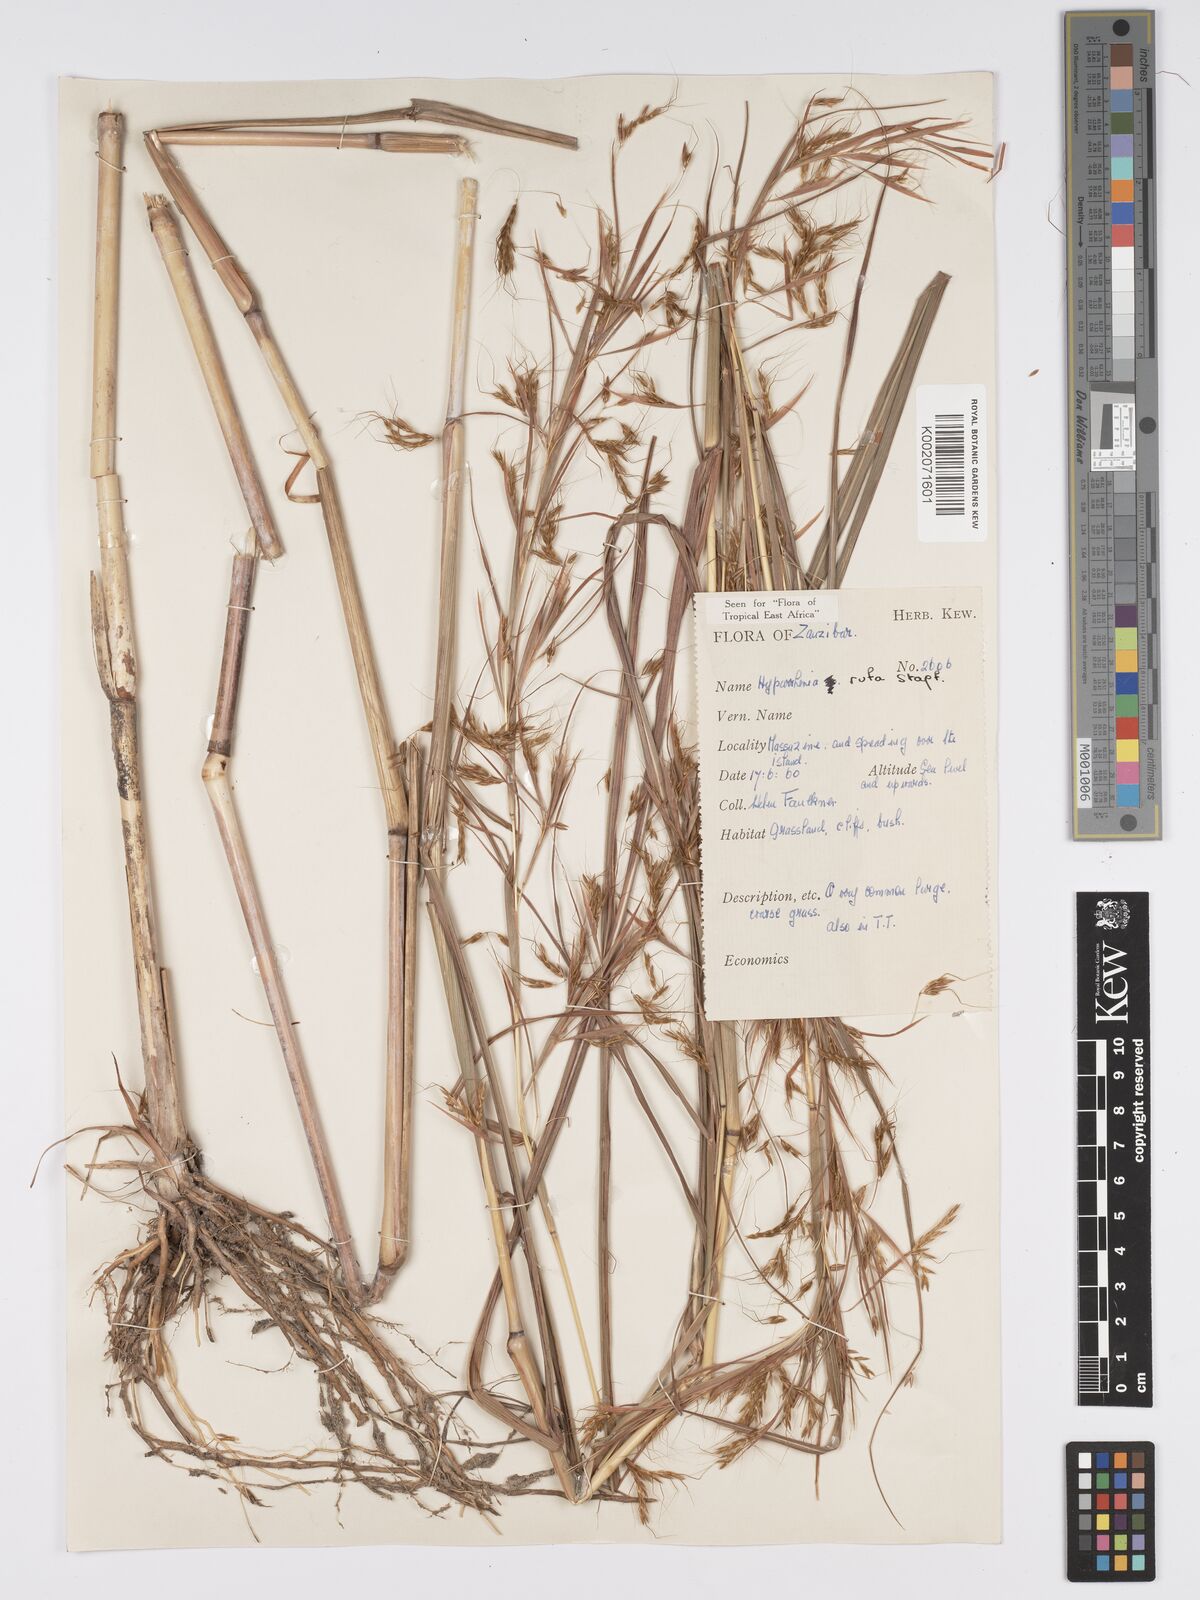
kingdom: Plantae
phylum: Tracheophyta
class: Liliopsida
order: Poales
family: Poaceae
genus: Hyparrhenia
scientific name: Hyparrhenia rufa
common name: Jaraguagrass
